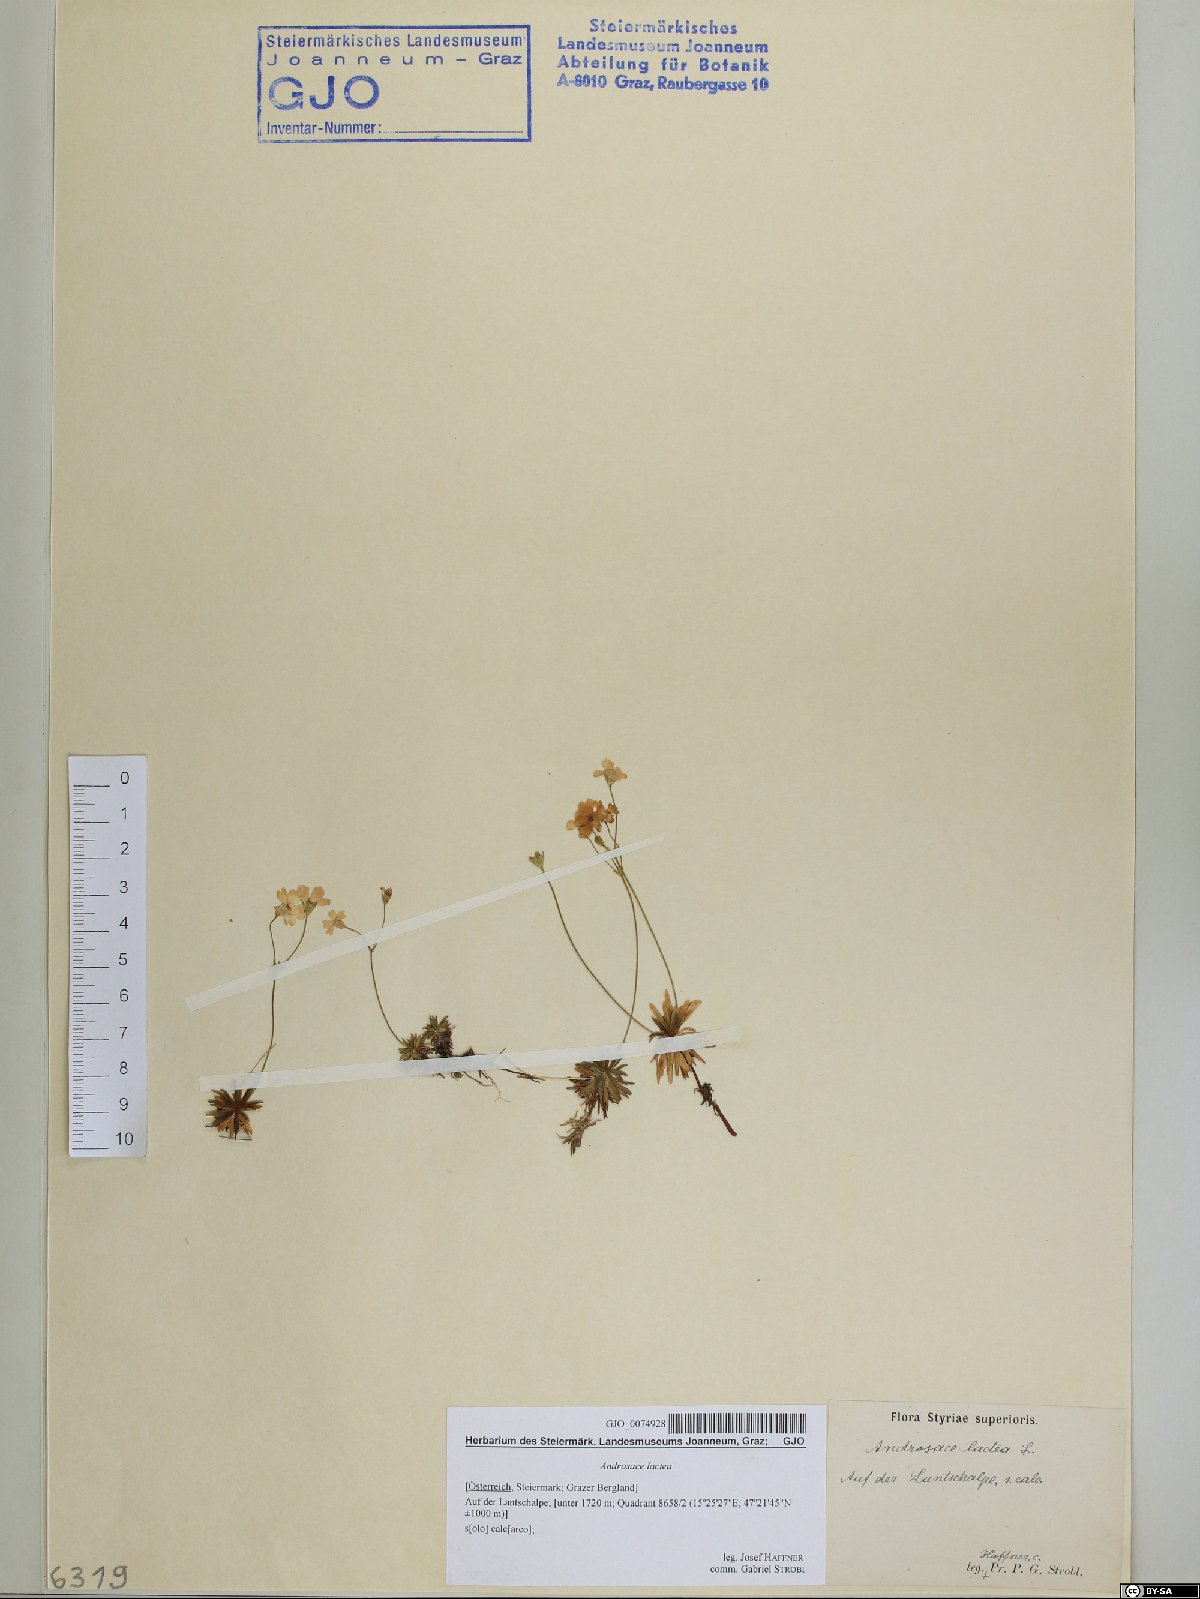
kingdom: Plantae
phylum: Tracheophyta
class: Magnoliopsida
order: Ericales
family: Primulaceae
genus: Androsace
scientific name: Androsace lactea
